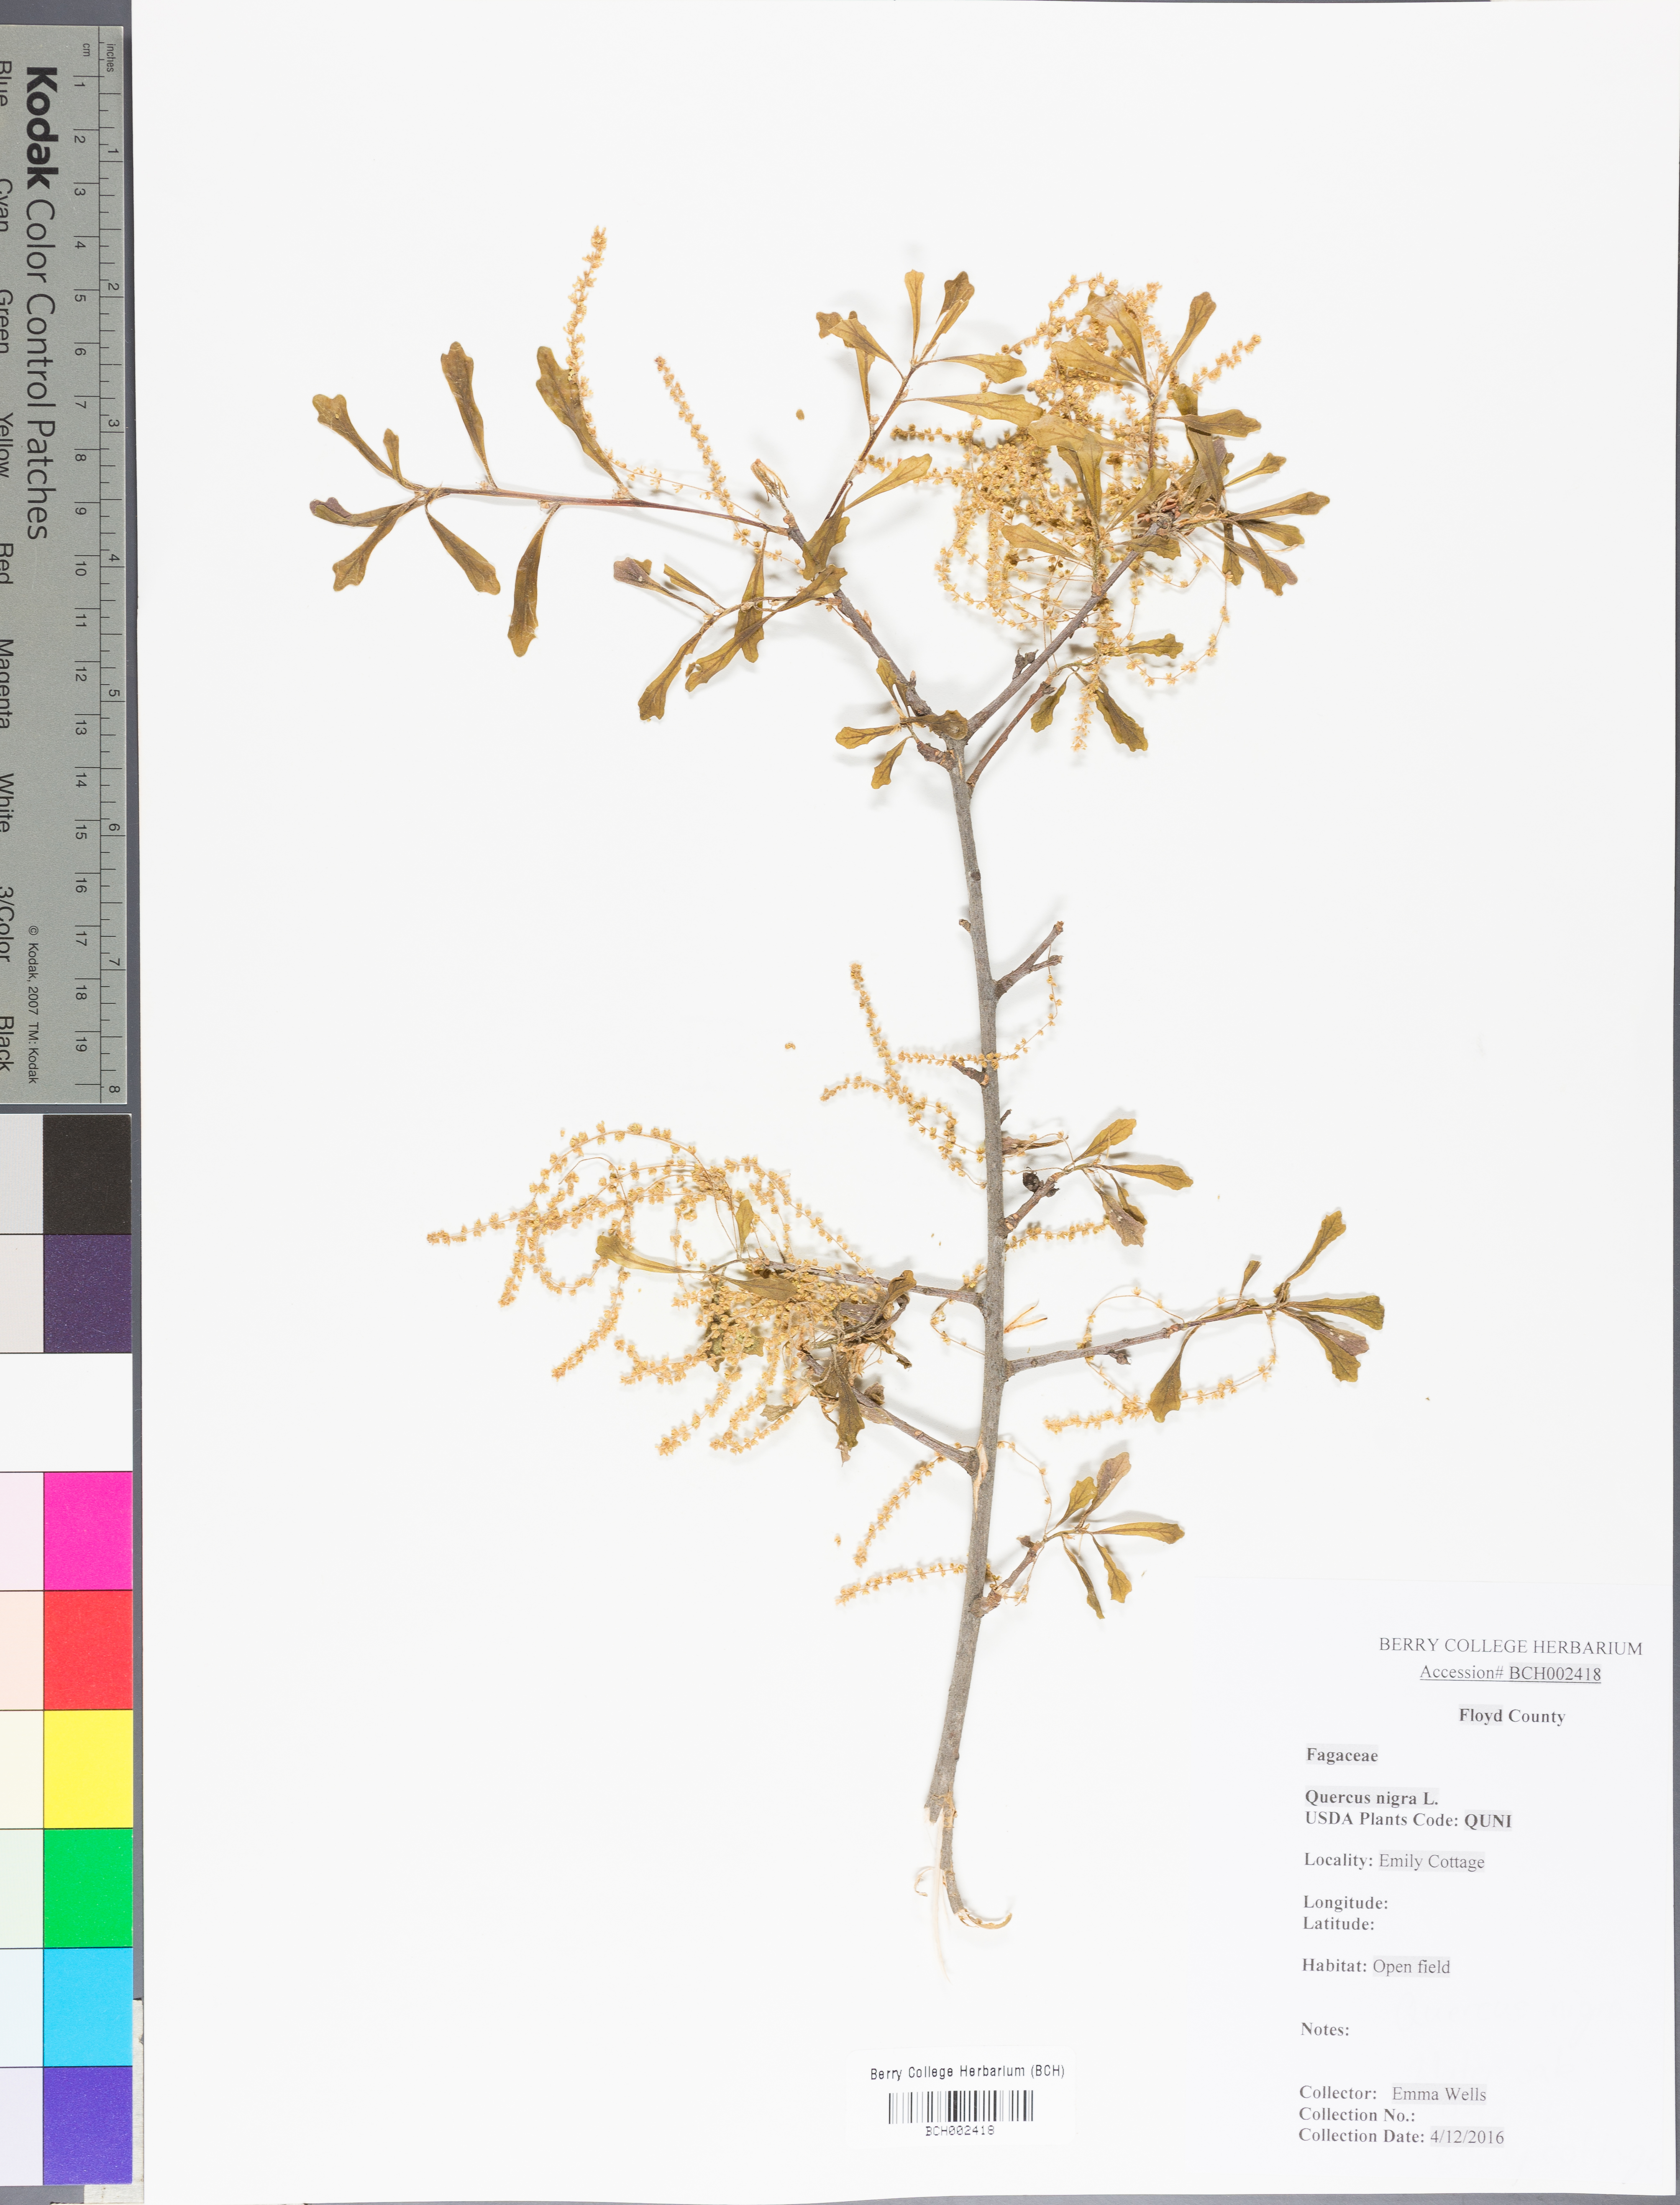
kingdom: Plantae
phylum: Tracheophyta
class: Magnoliopsida
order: Fagales
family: Fagaceae
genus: Quercus
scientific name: Quercus nigra
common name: Water oak
